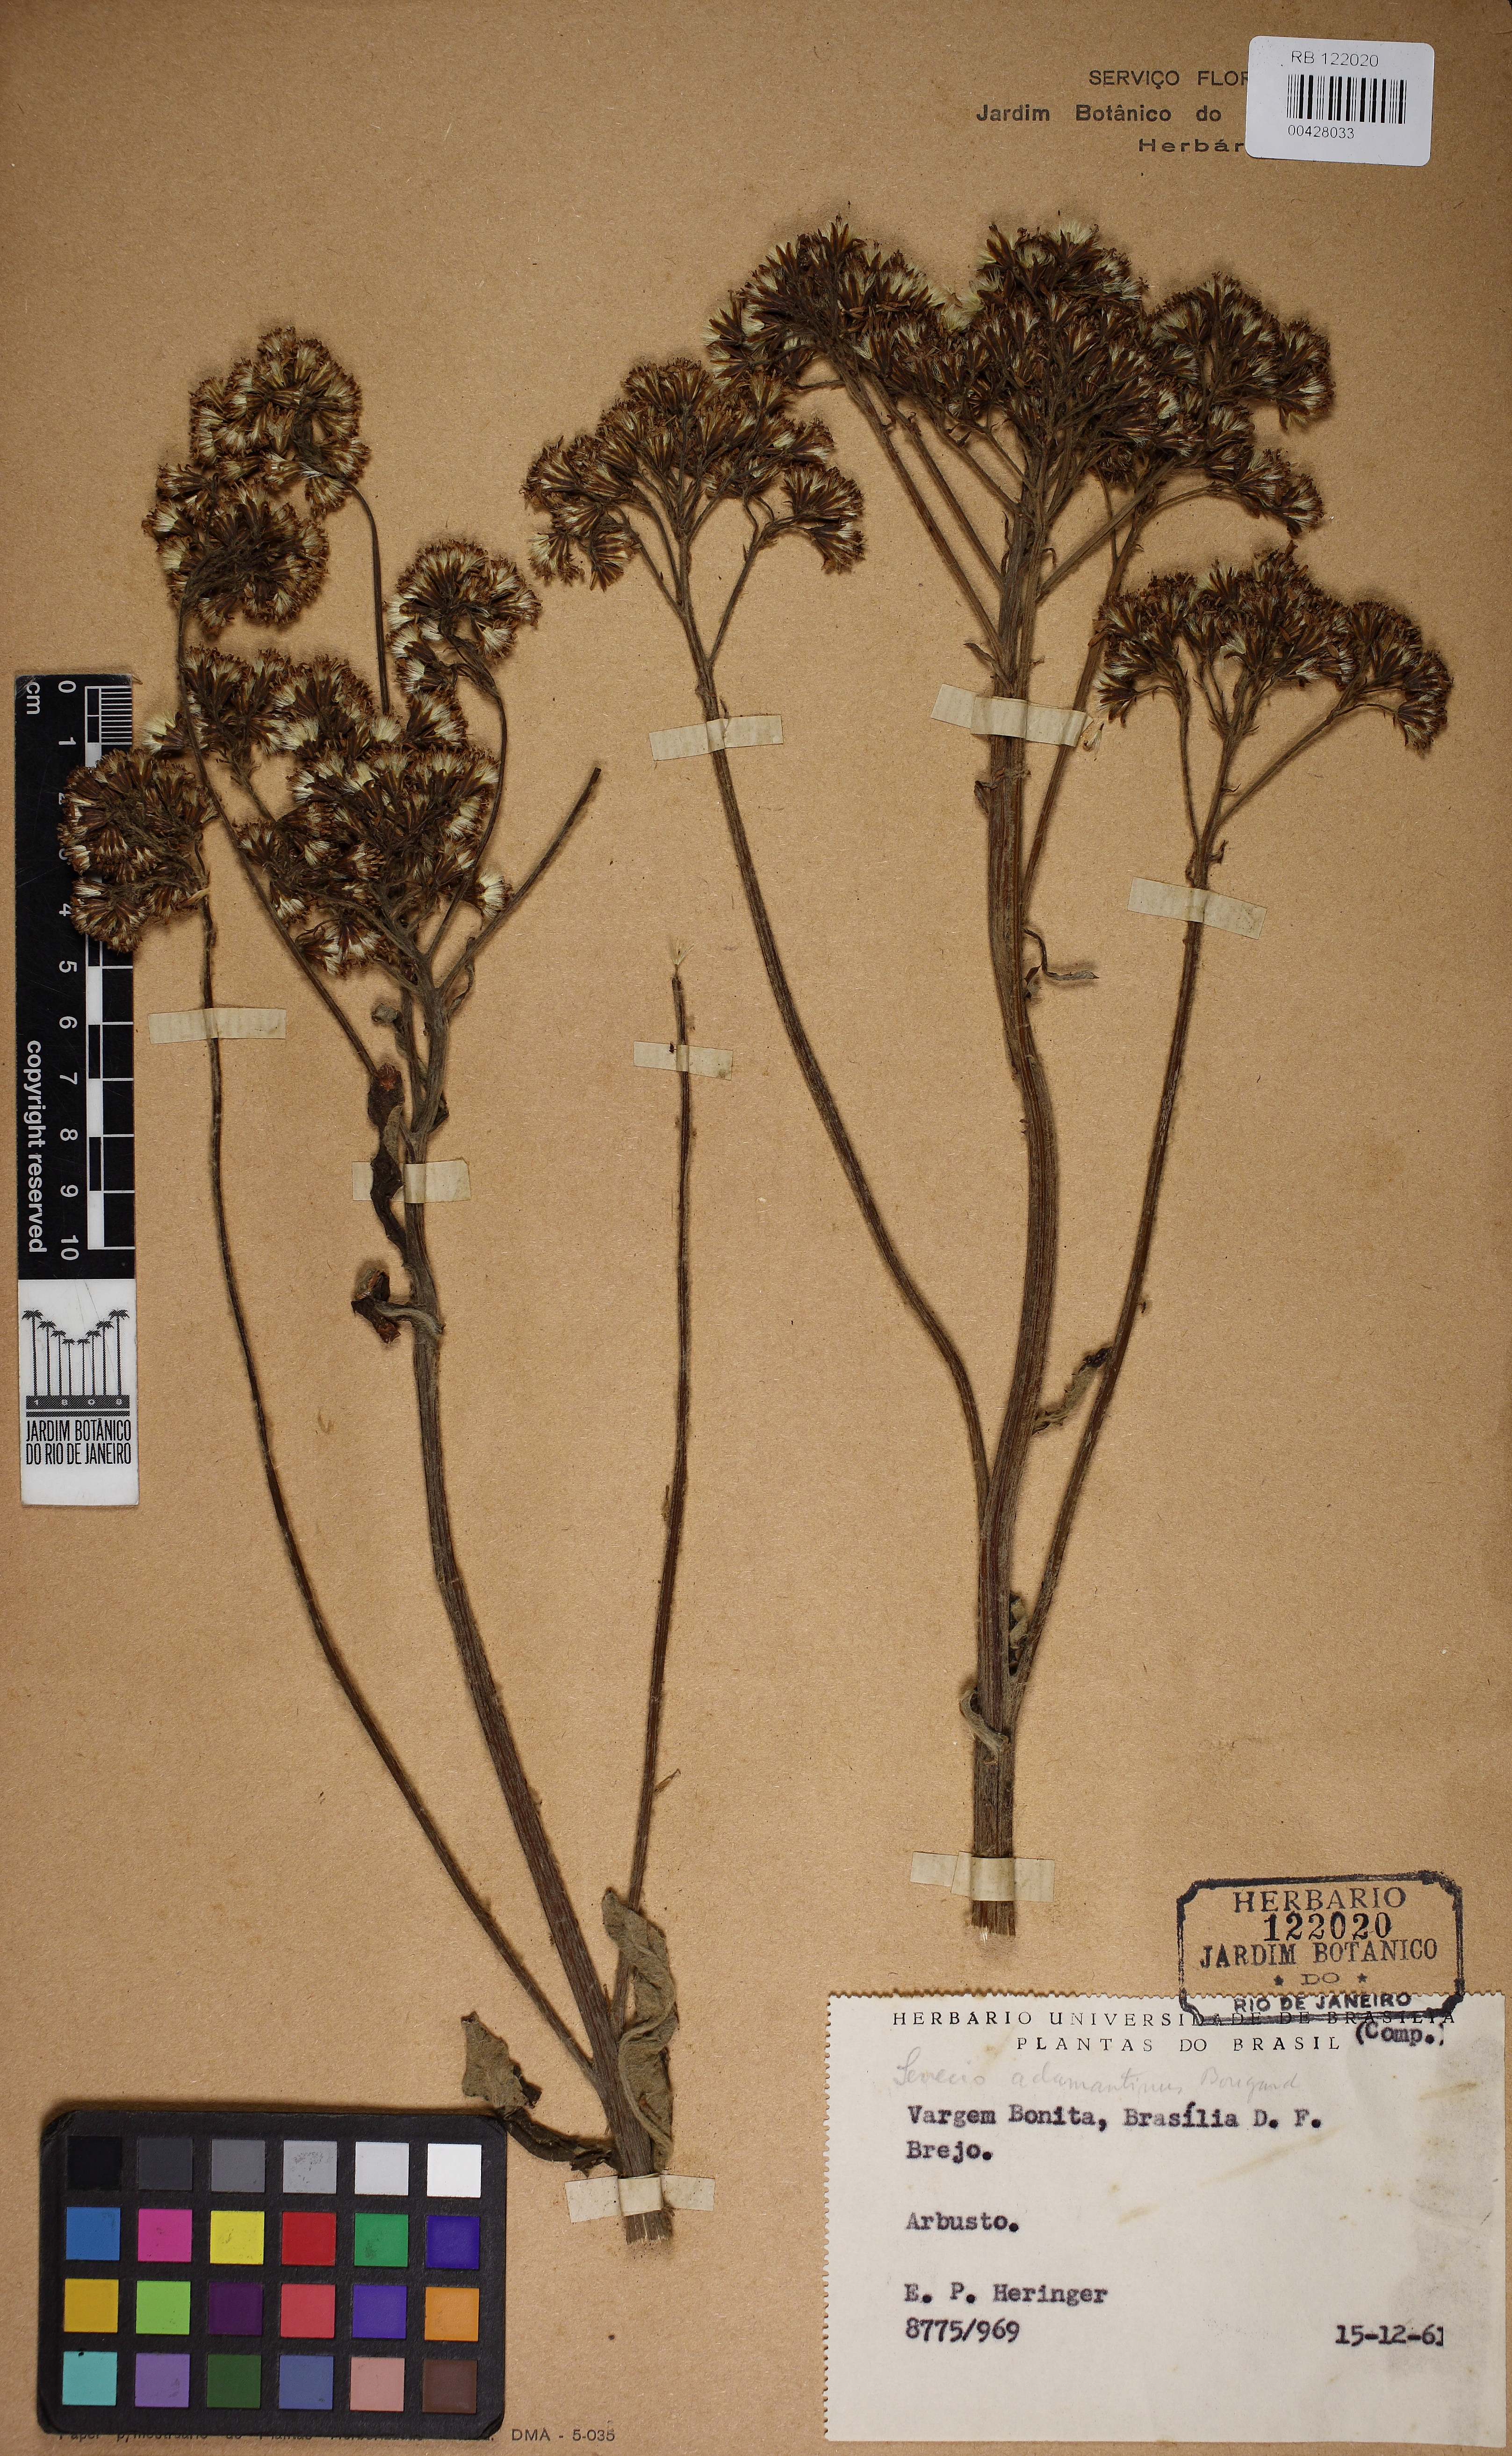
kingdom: Plantae
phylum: Tracheophyta
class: Magnoliopsida
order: Asterales
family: Asteraceae
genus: Senecio
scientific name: Senecio adamantinus
